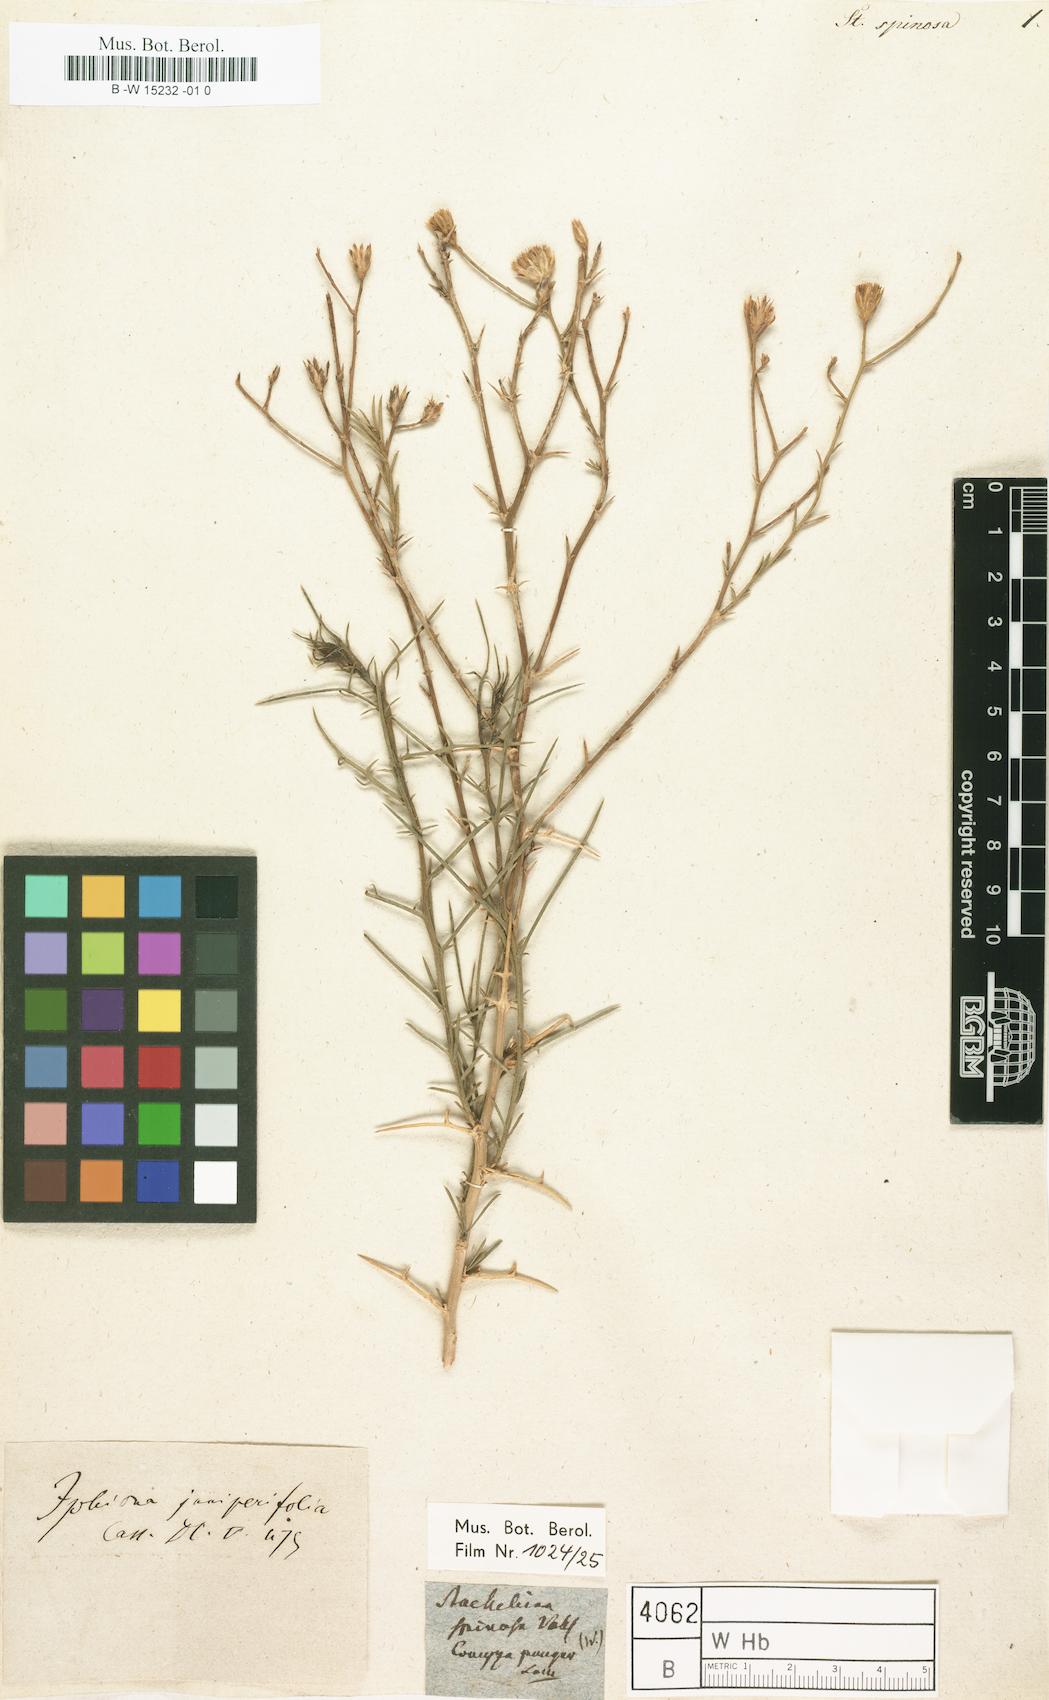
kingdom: Plantae
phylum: Tracheophyta
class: Magnoliopsida
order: Asterales
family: Asteraceae
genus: Iphiona
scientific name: Iphiona mucronata
